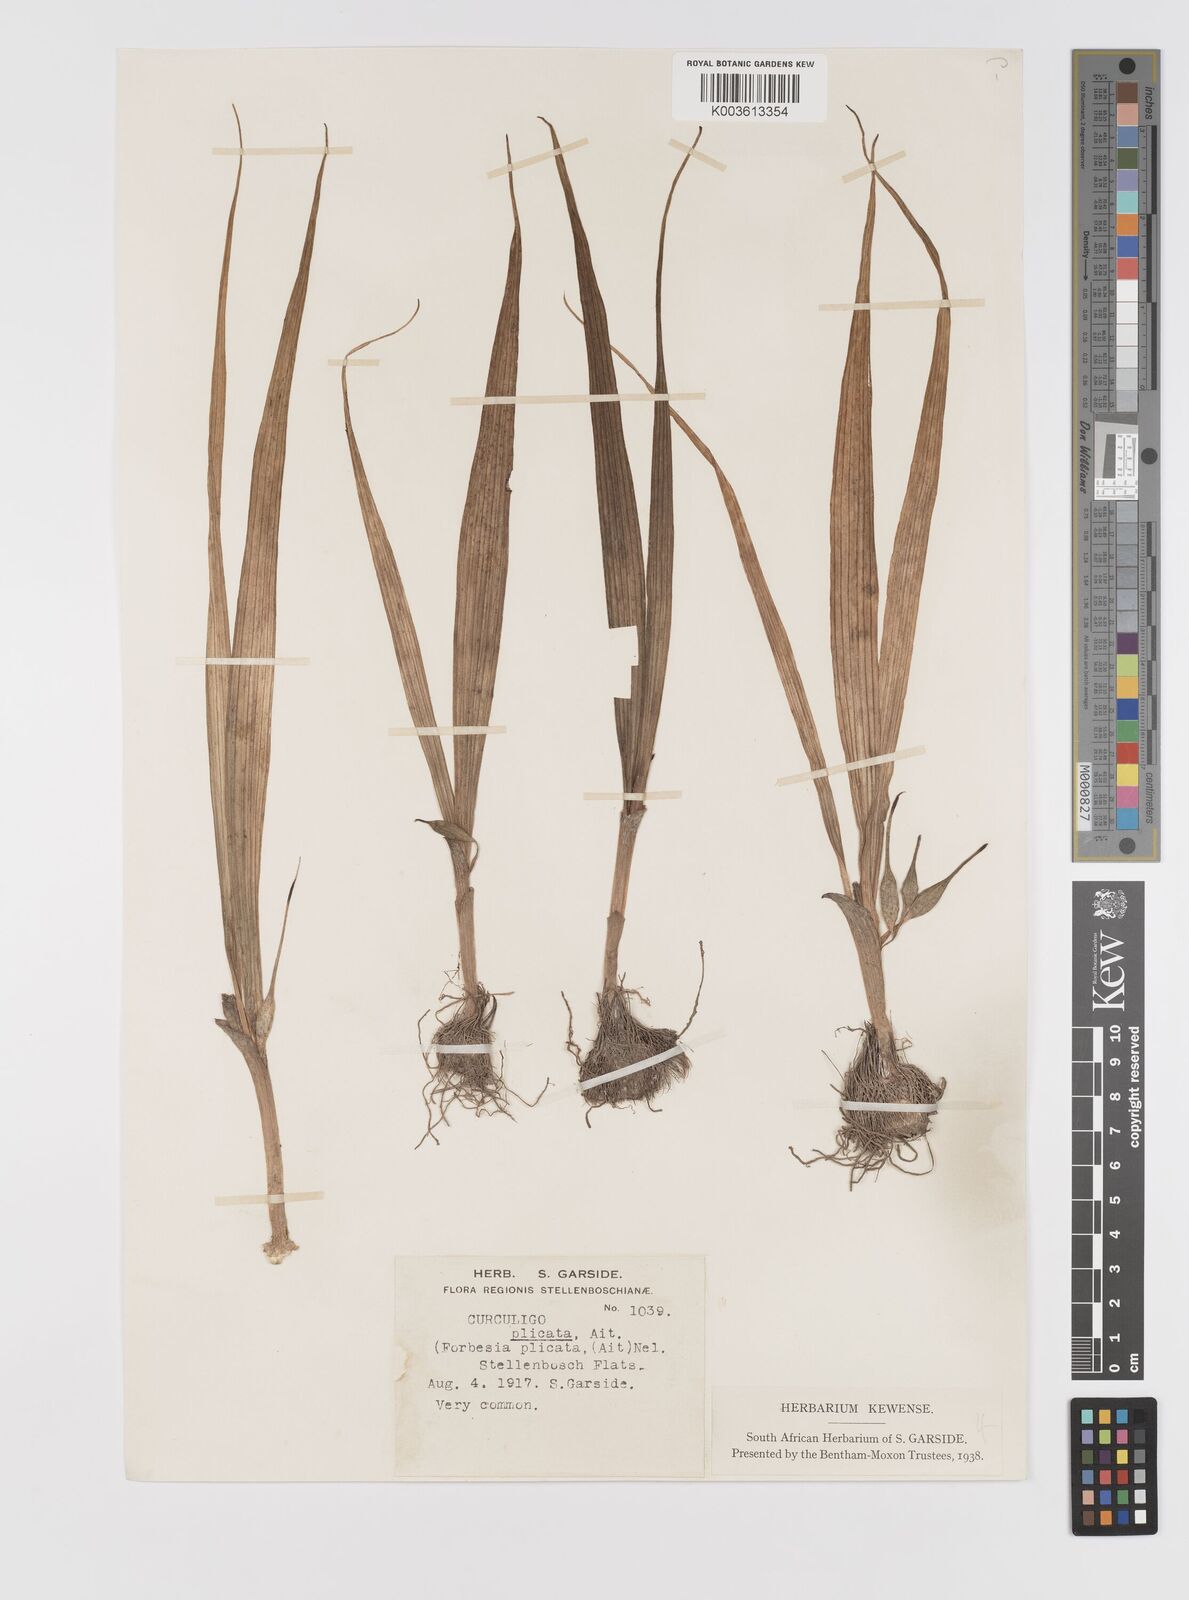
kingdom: Plantae
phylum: Tracheophyta
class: Liliopsida
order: Asparagales
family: Hypoxidaceae
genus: Empodium
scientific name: Empodium plicatum
